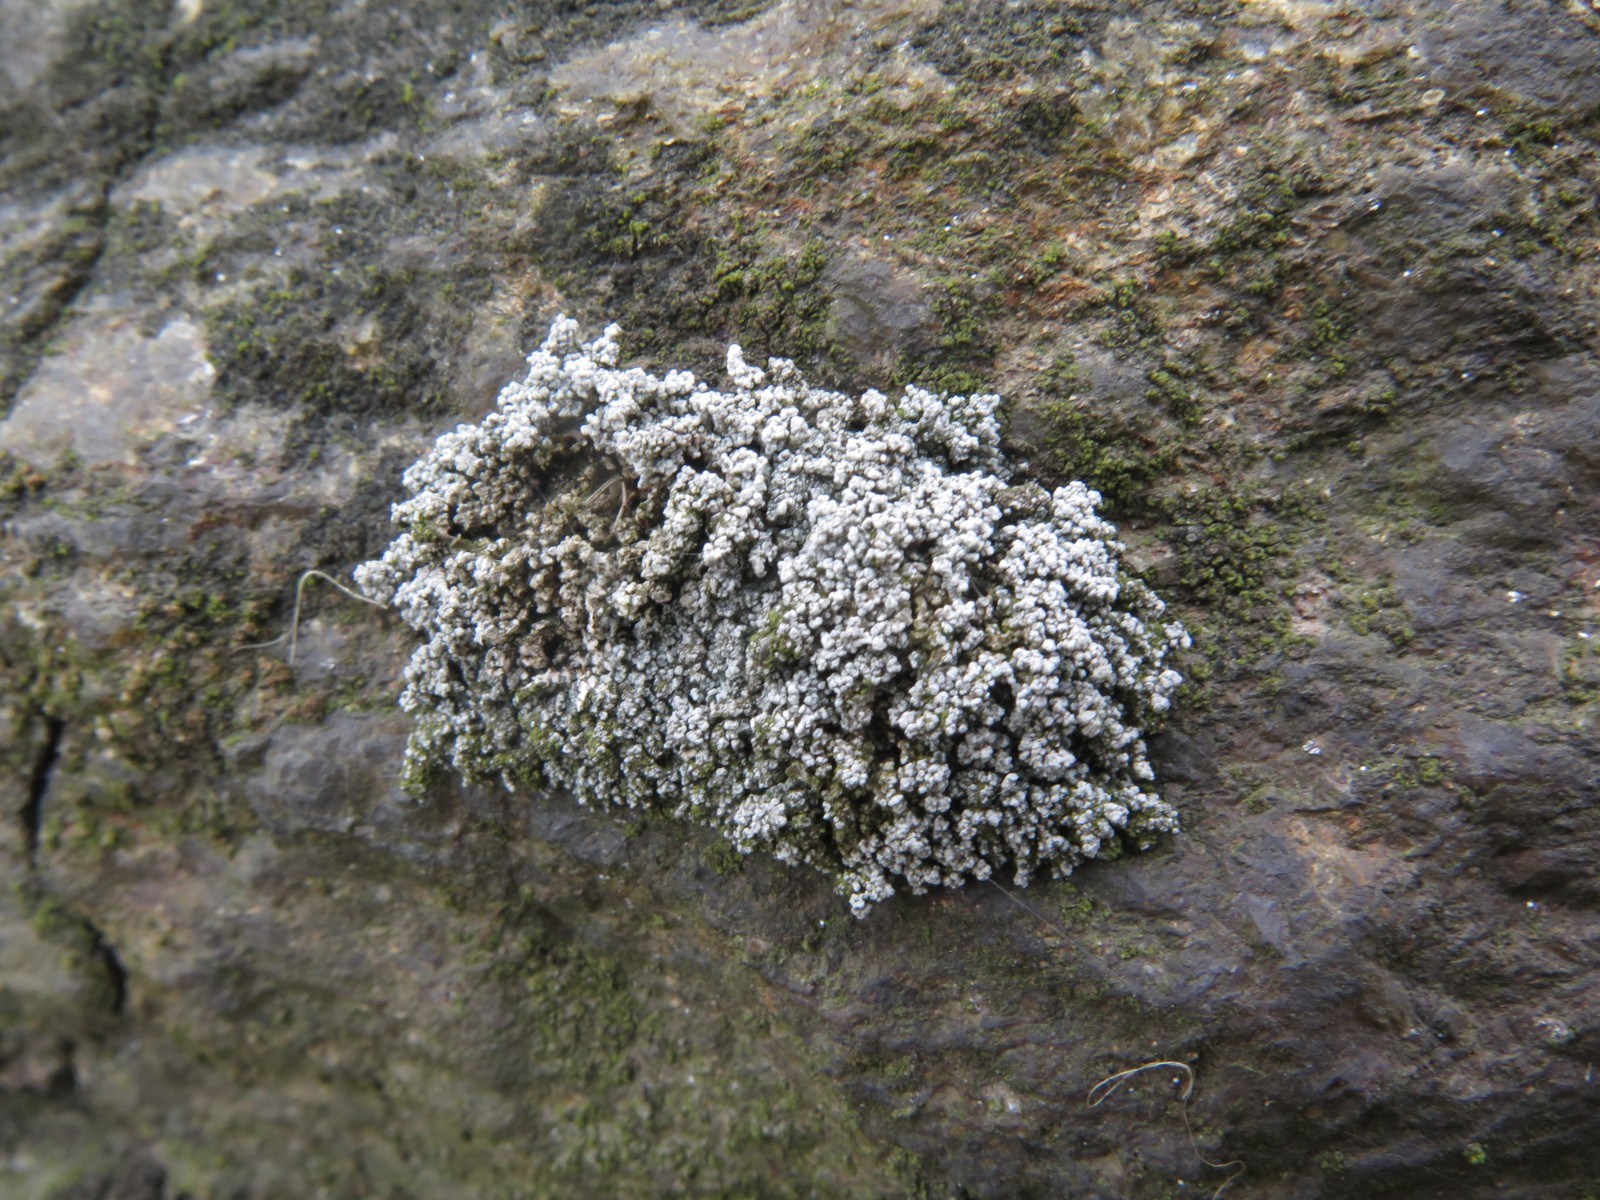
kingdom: Fungi
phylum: Ascomycota
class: Lecanoromycetes
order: Lecanorales
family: Stereocaulaceae
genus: Stereocaulon
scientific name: Stereocaulon vesuvianum
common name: skjold-korallav
